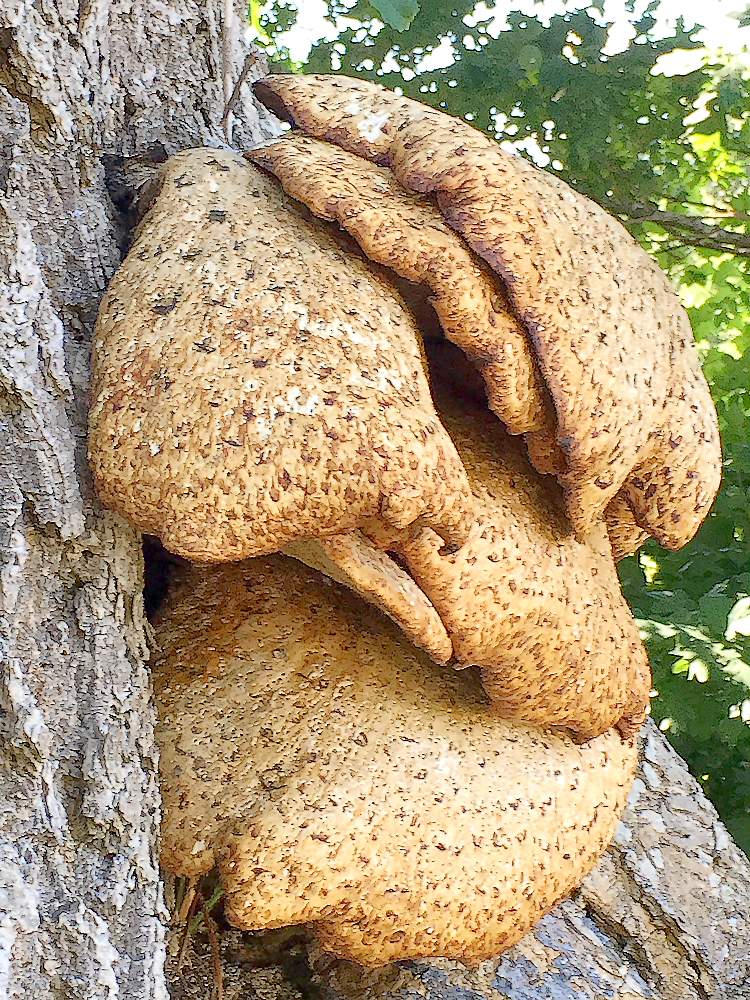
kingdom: Fungi
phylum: Basidiomycota
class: Agaricomycetes
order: Polyporales
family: Polyporaceae
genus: Cerioporus
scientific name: Cerioporus squamosus
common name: skællet stilkporesvamp
